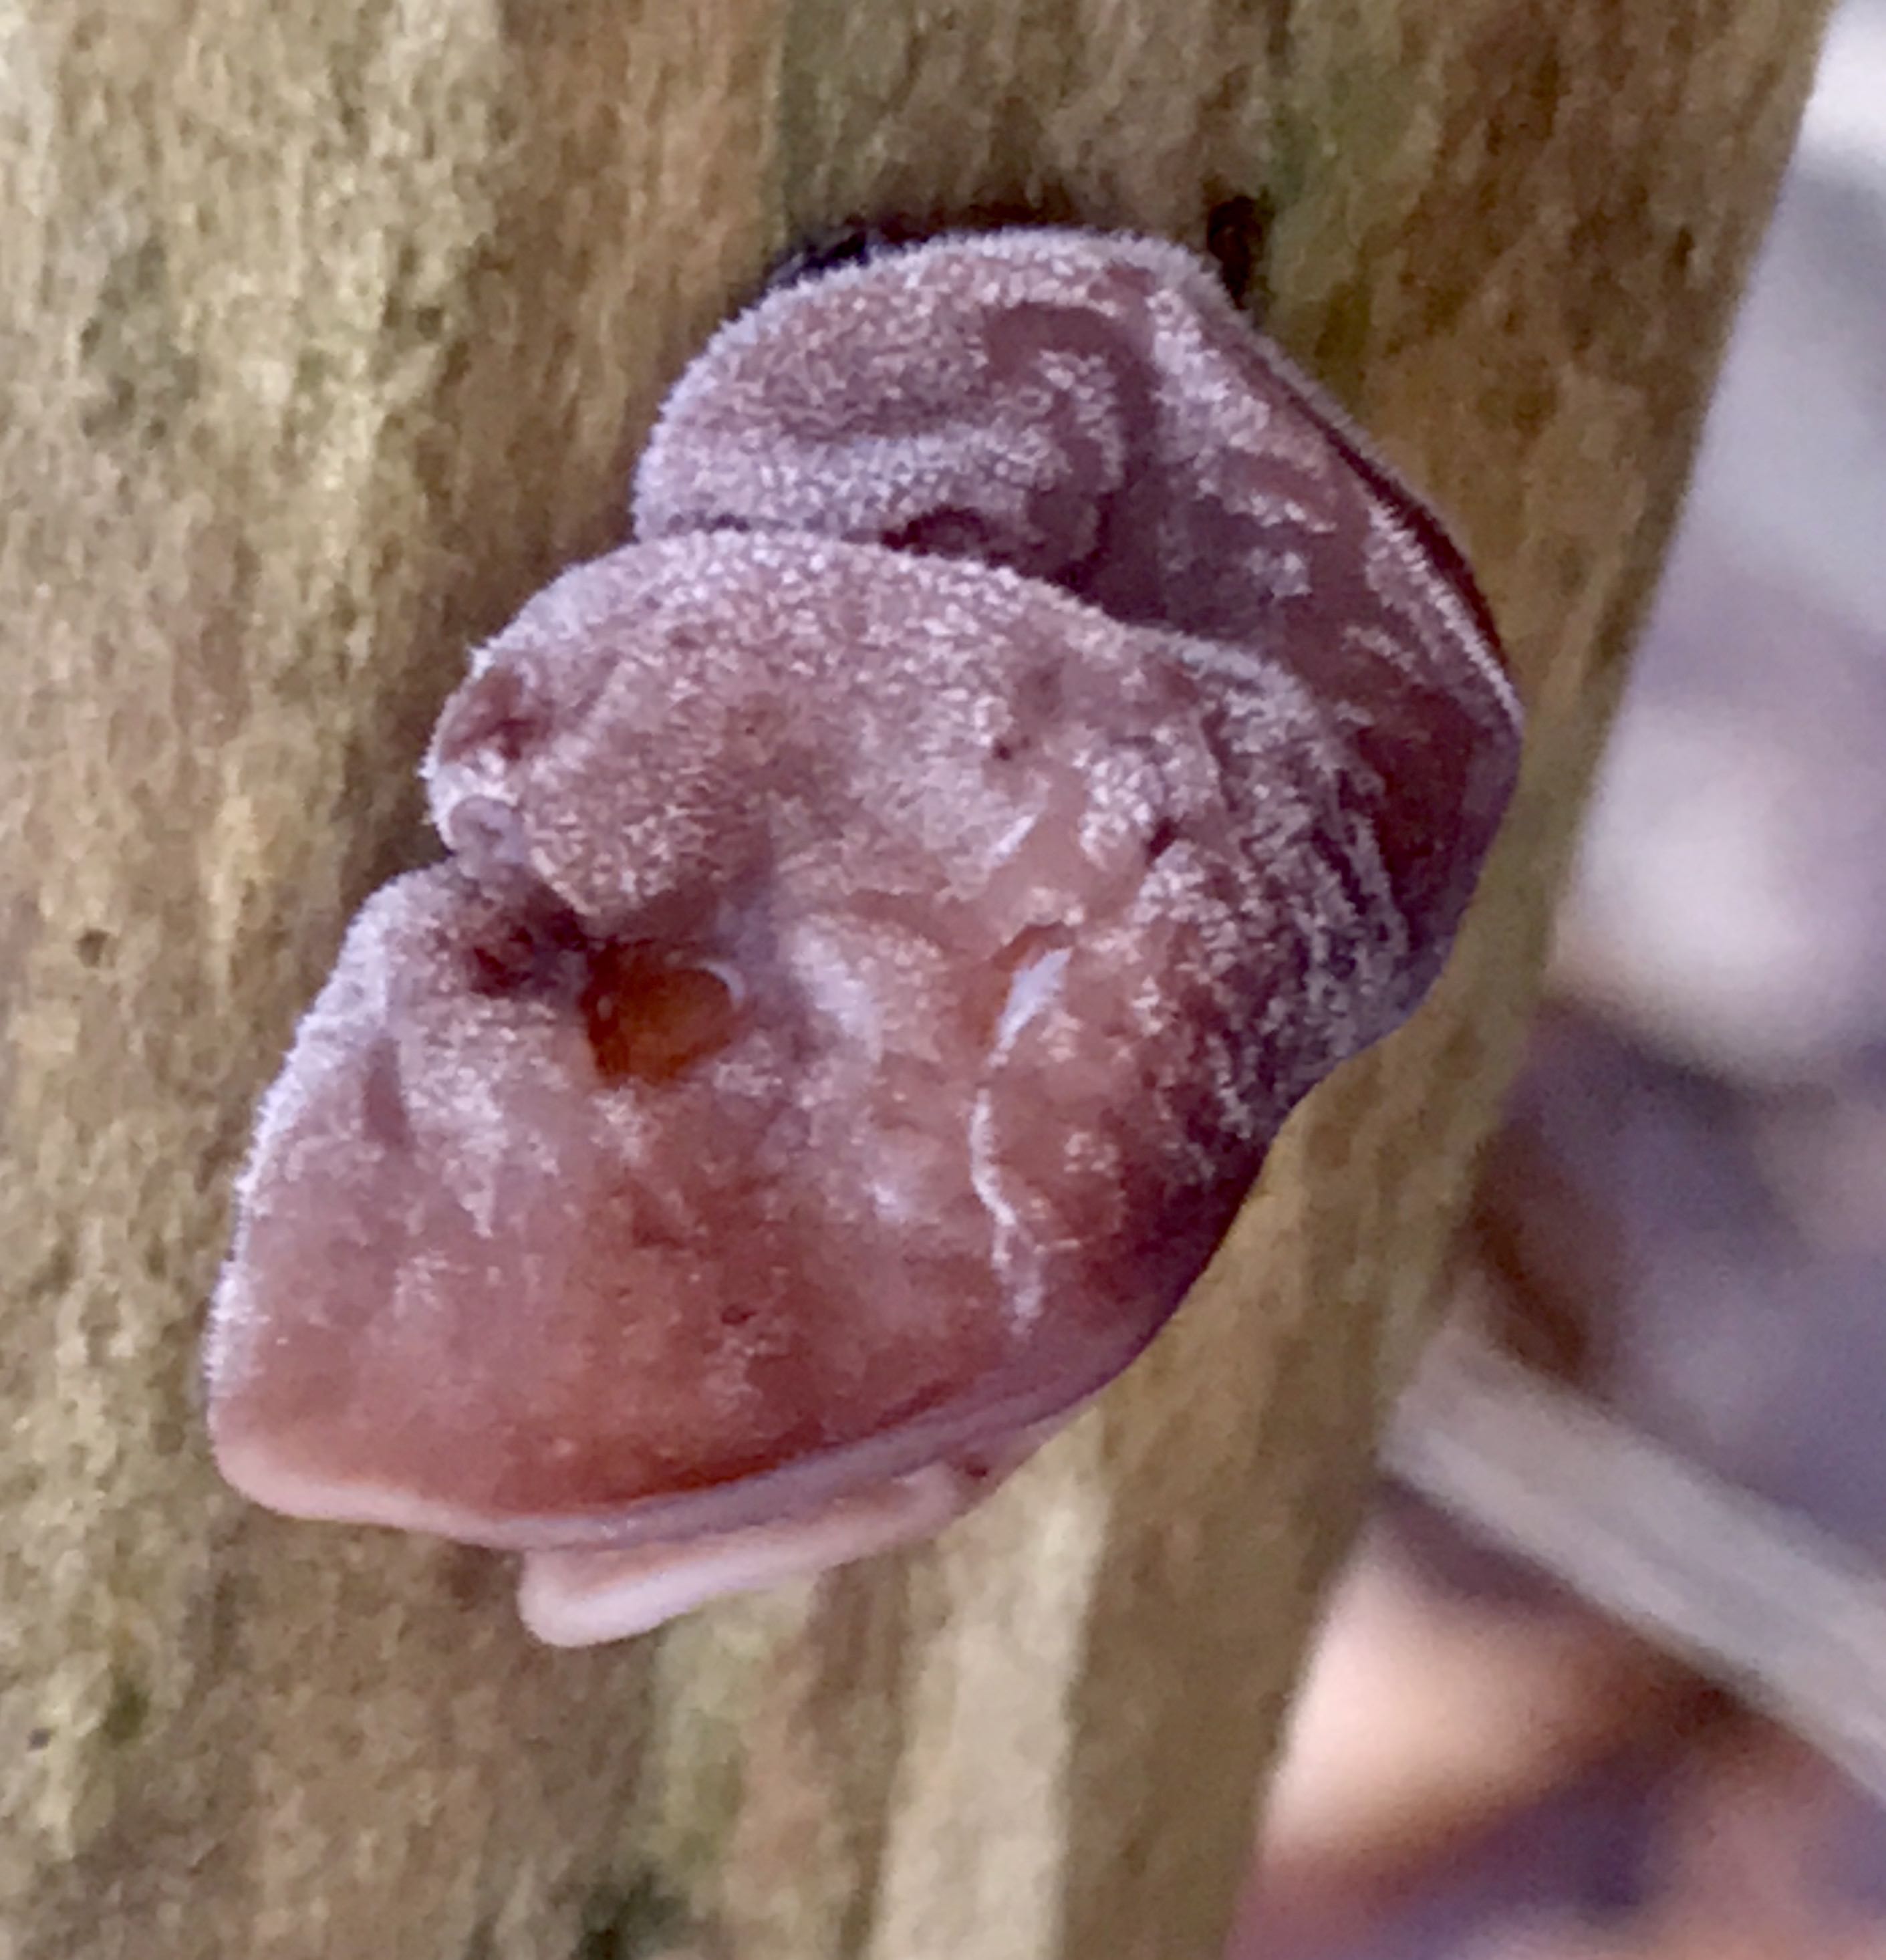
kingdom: Fungi
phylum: Basidiomycota
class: Agaricomycetes
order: Auriculariales
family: Auriculariaceae
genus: Auricularia
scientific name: Auricularia auricula-judae
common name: almindelig judasøre
